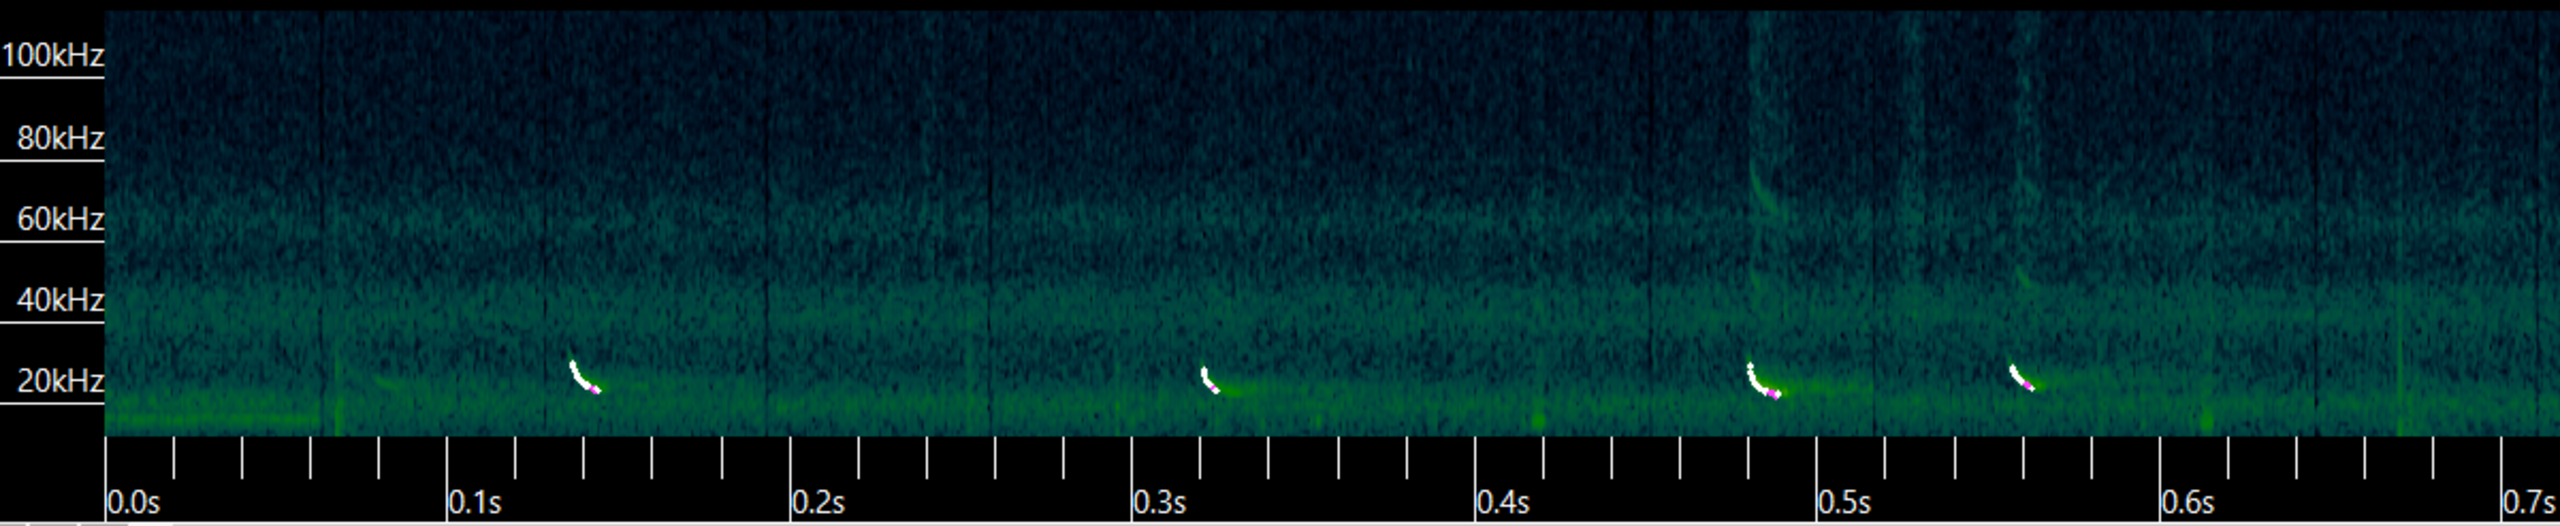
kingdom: Animalia
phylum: Chordata
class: Mammalia
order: Chiroptera
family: Vespertilionidae
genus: Vespertilio
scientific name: Vespertilio murinus
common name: Skimmelflagermus
